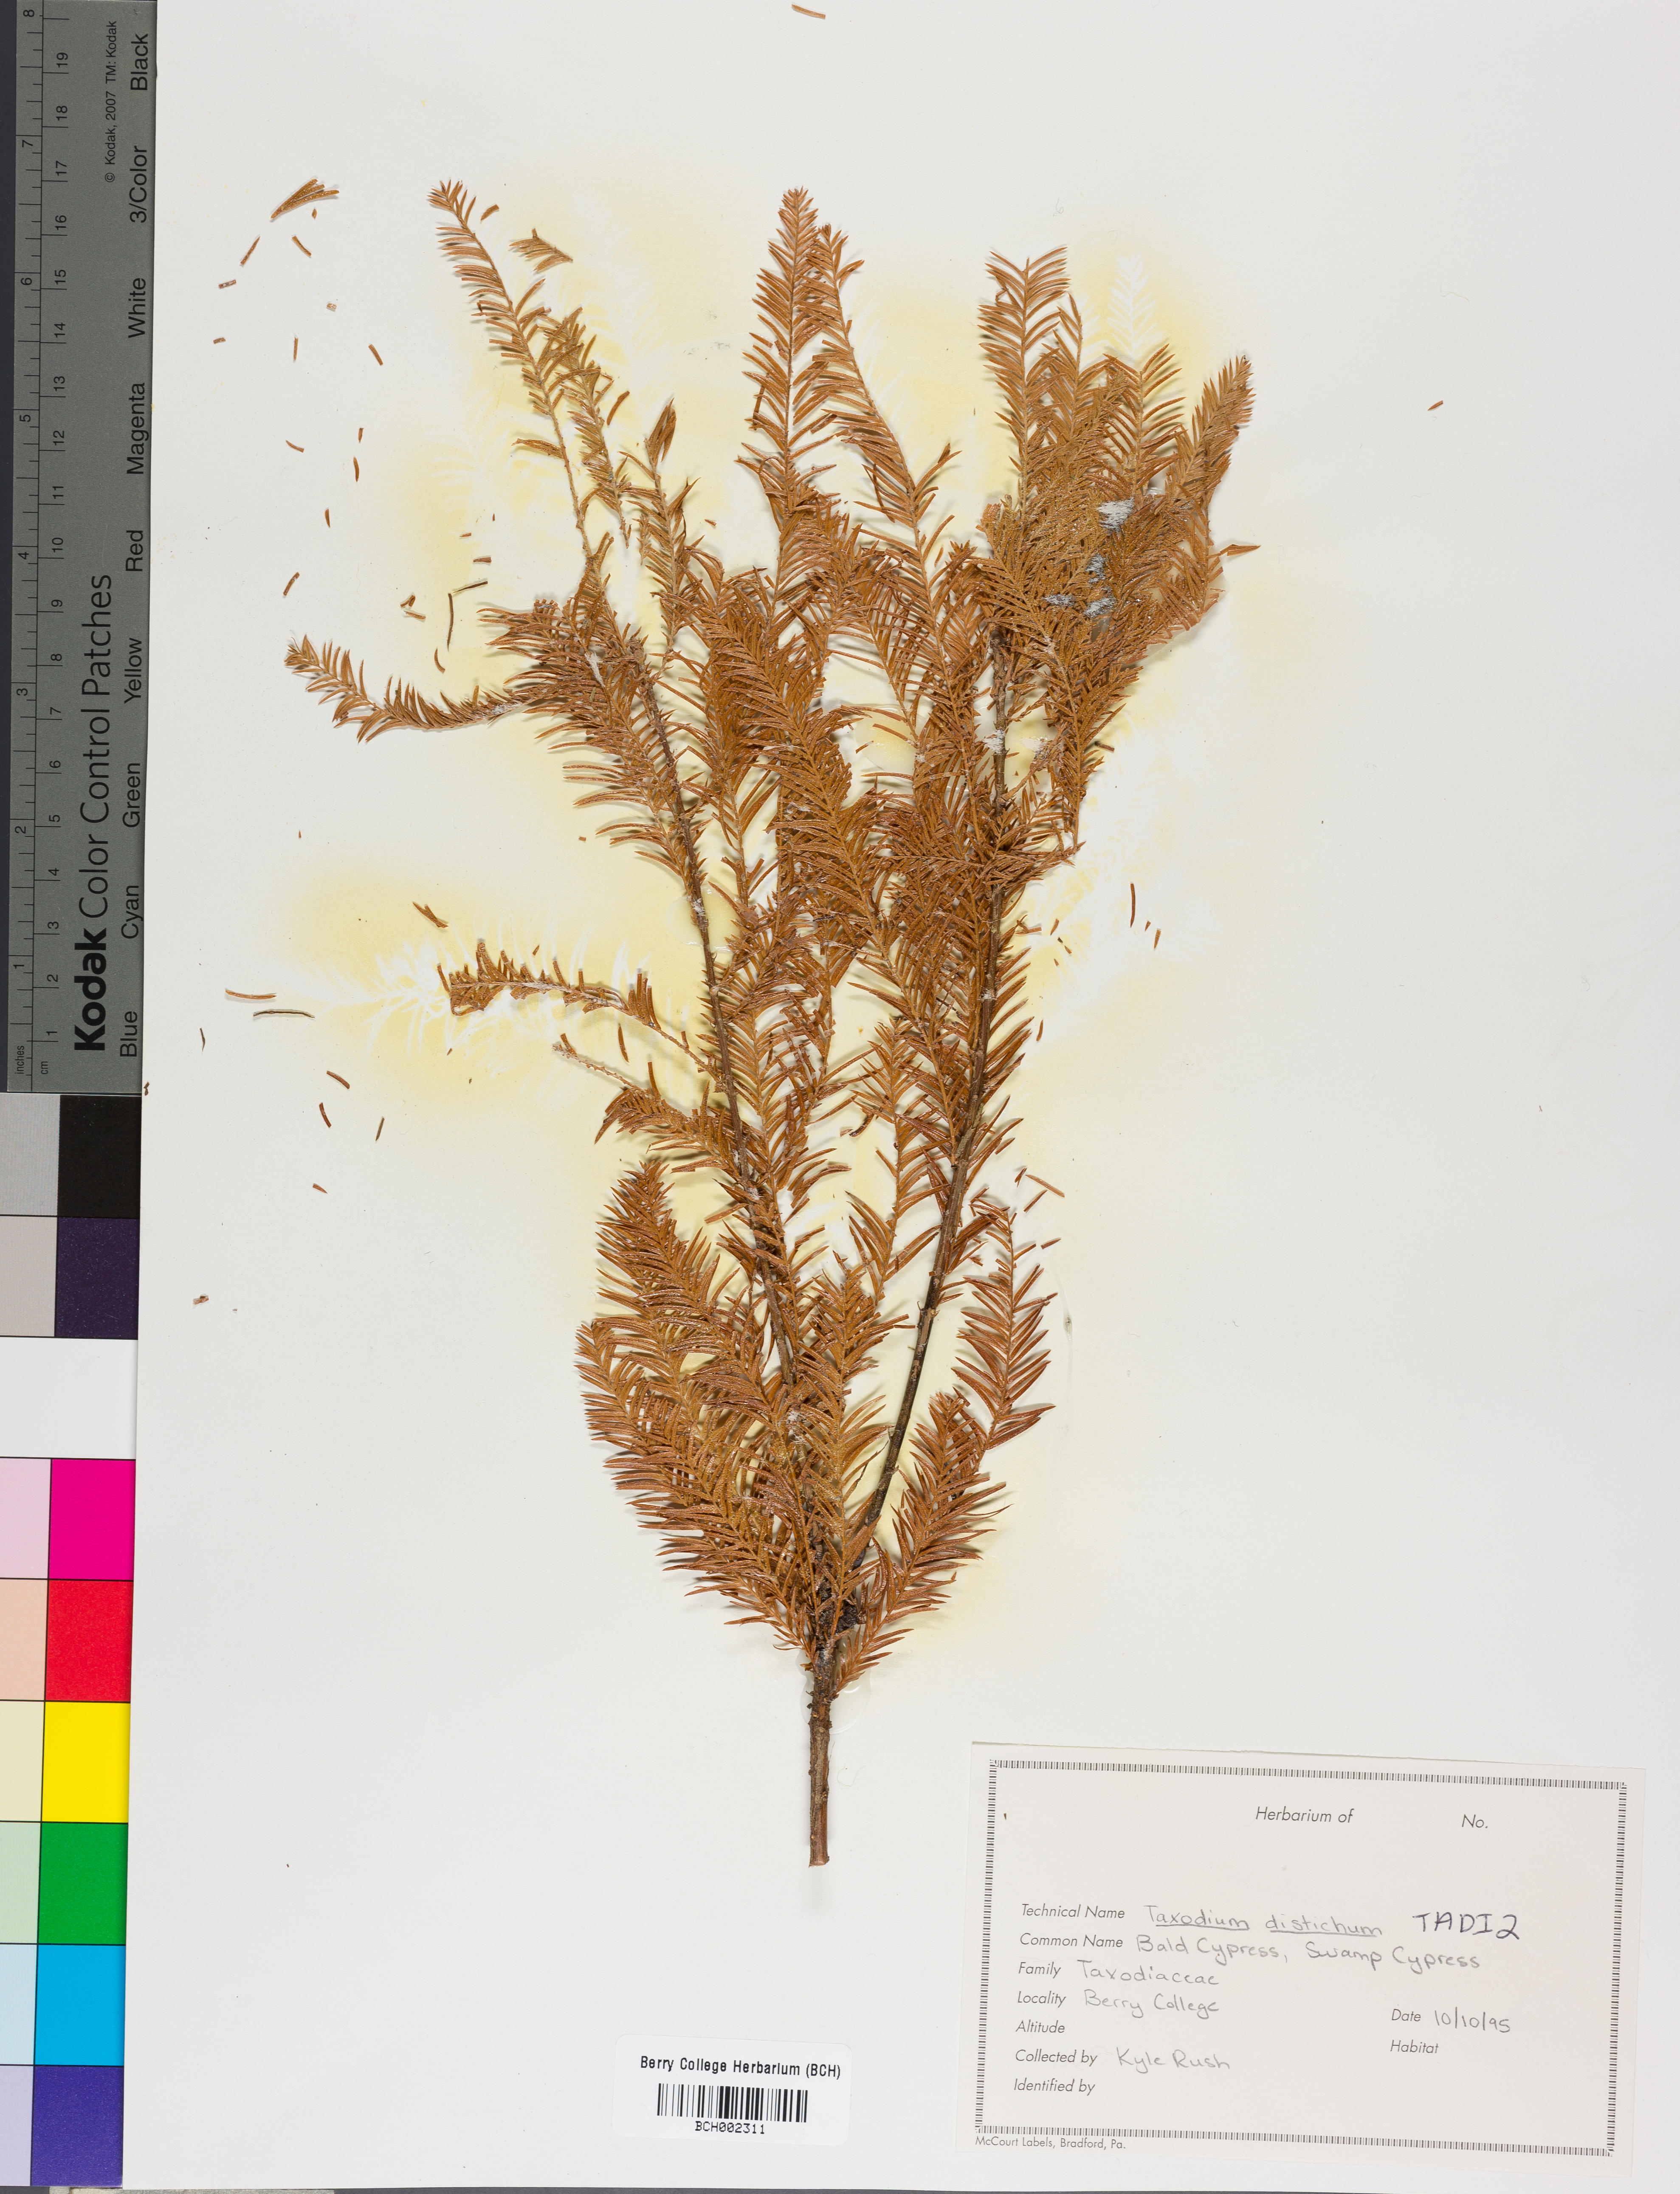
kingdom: Plantae
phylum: Tracheophyta
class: Pinopsida
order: Pinales
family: Cupressaceae
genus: Taxodium
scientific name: Taxodium distichum
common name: Bald cypress
